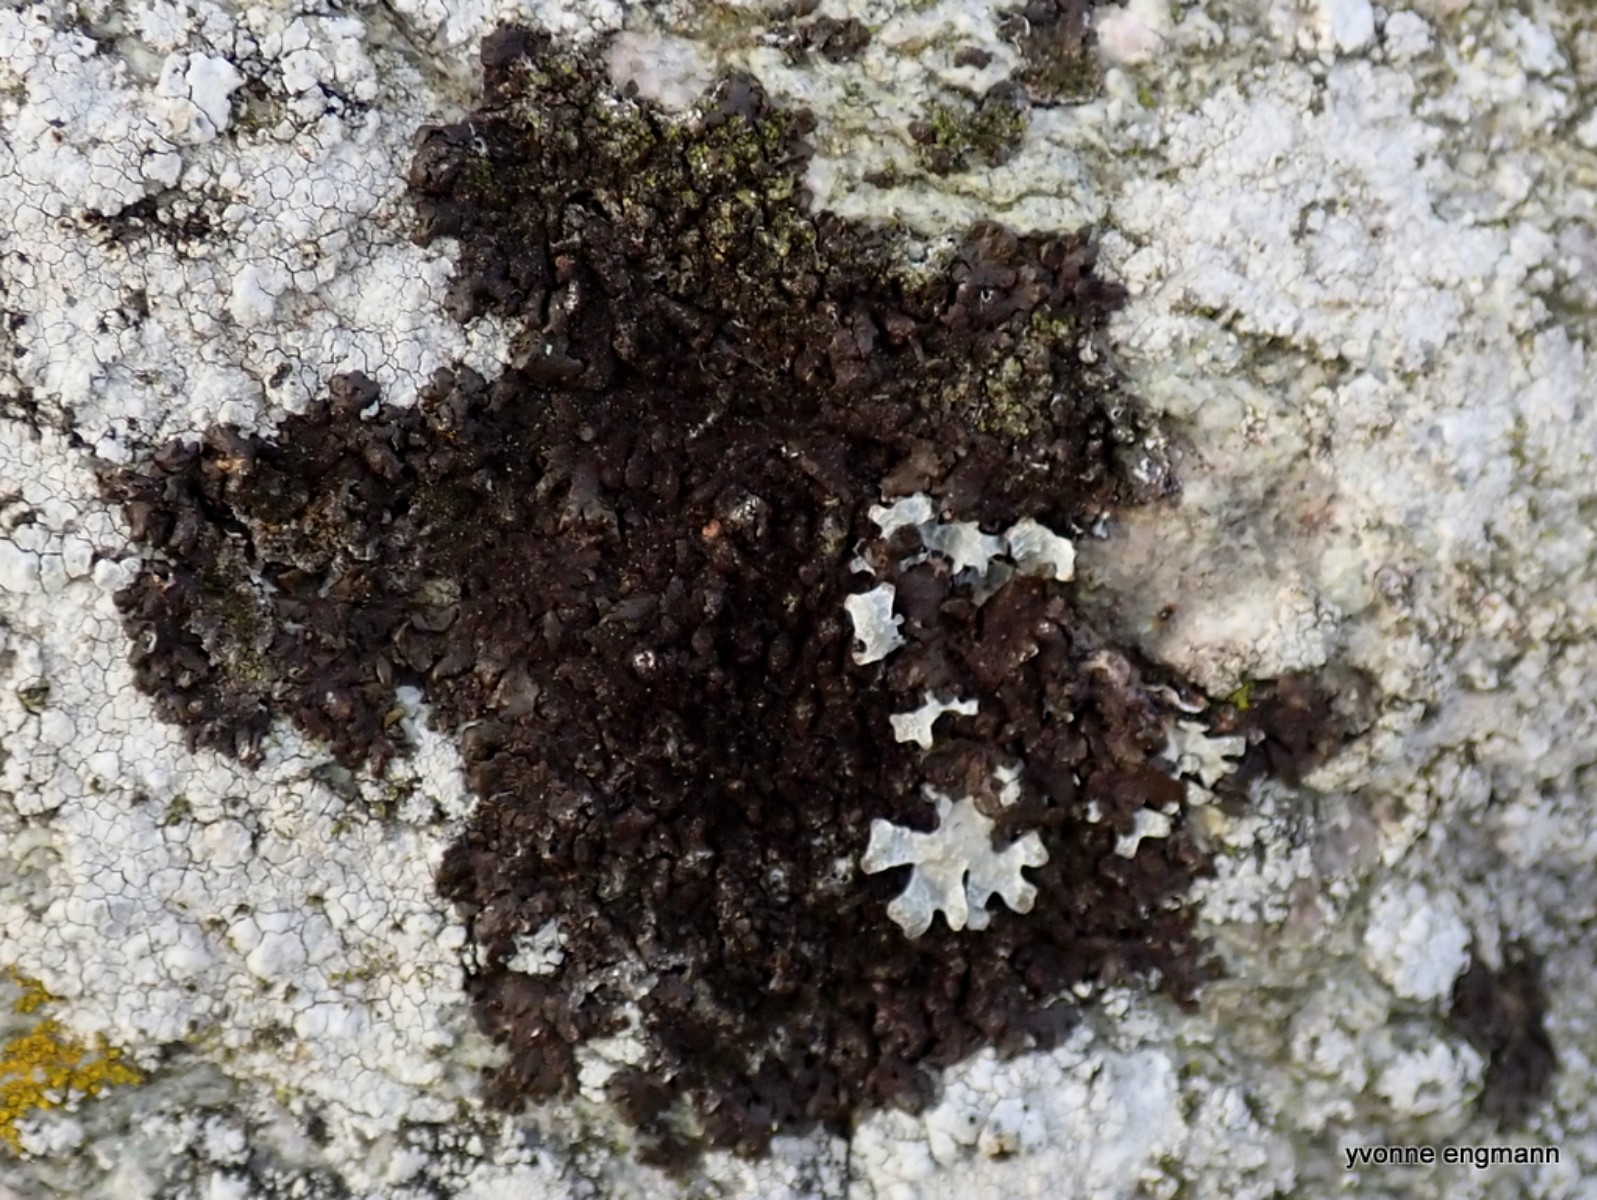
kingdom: Fungi
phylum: Ascomycota
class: Lecanoromycetes
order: Lecanorales
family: Parmeliaceae
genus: Melanelixia
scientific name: Melanelixia fuliginosa
